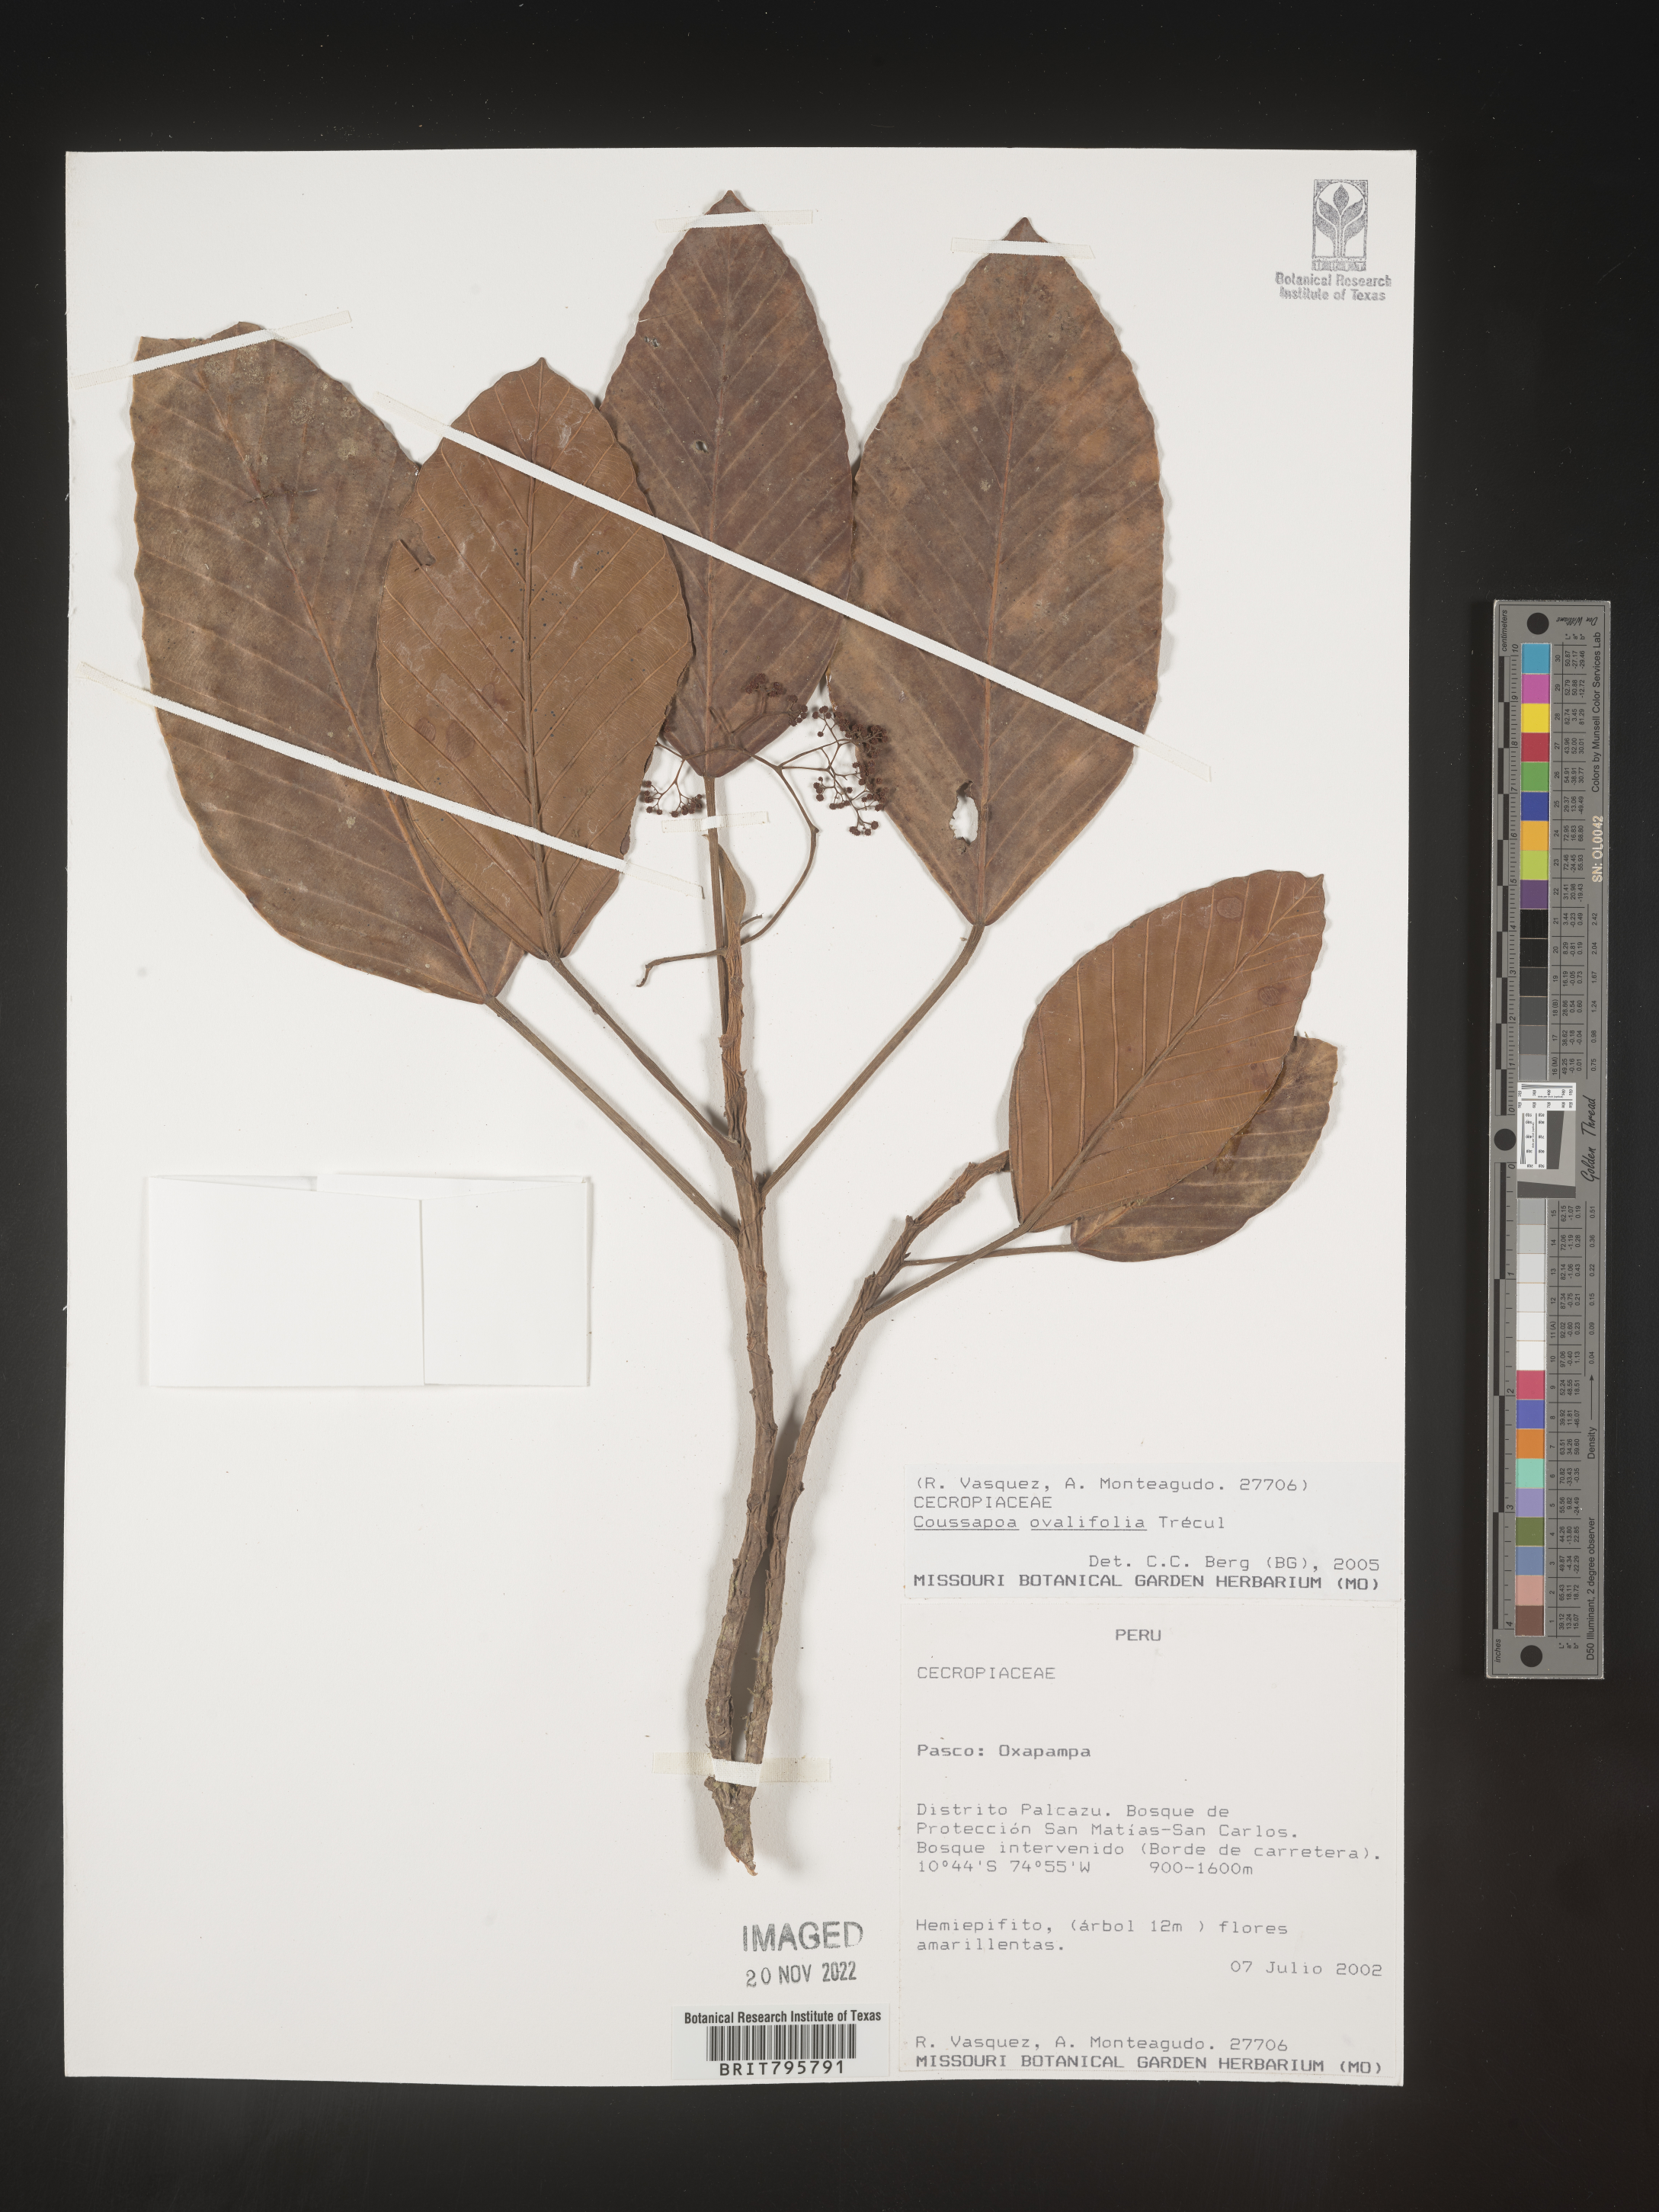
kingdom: Plantae
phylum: Tracheophyta
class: Magnoliopsida
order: Rosales
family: Urticaceae
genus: Coussapoa
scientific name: Coussapoa
